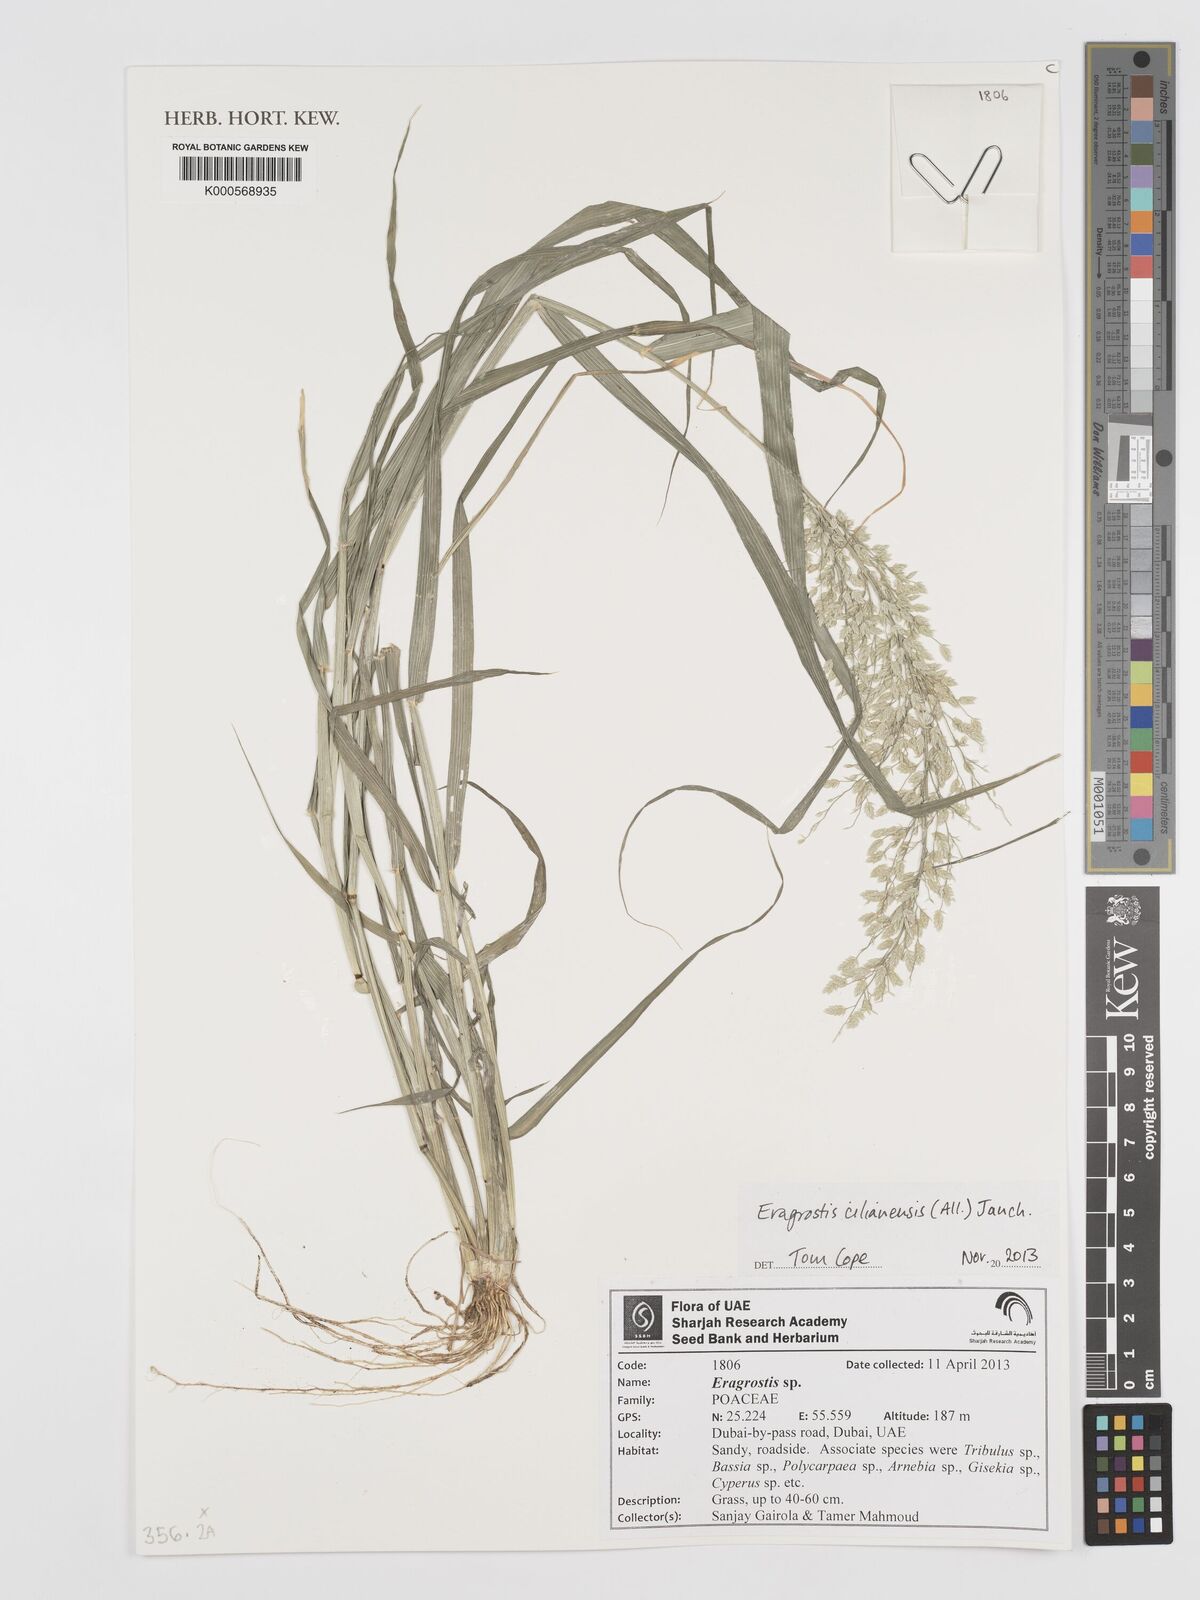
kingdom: Plantae
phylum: Tracheophyta
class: Liliopsida
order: Poales
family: Poaceae
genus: Eragrostis
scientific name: Eragrostis cilianensis
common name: Stinkgrass
